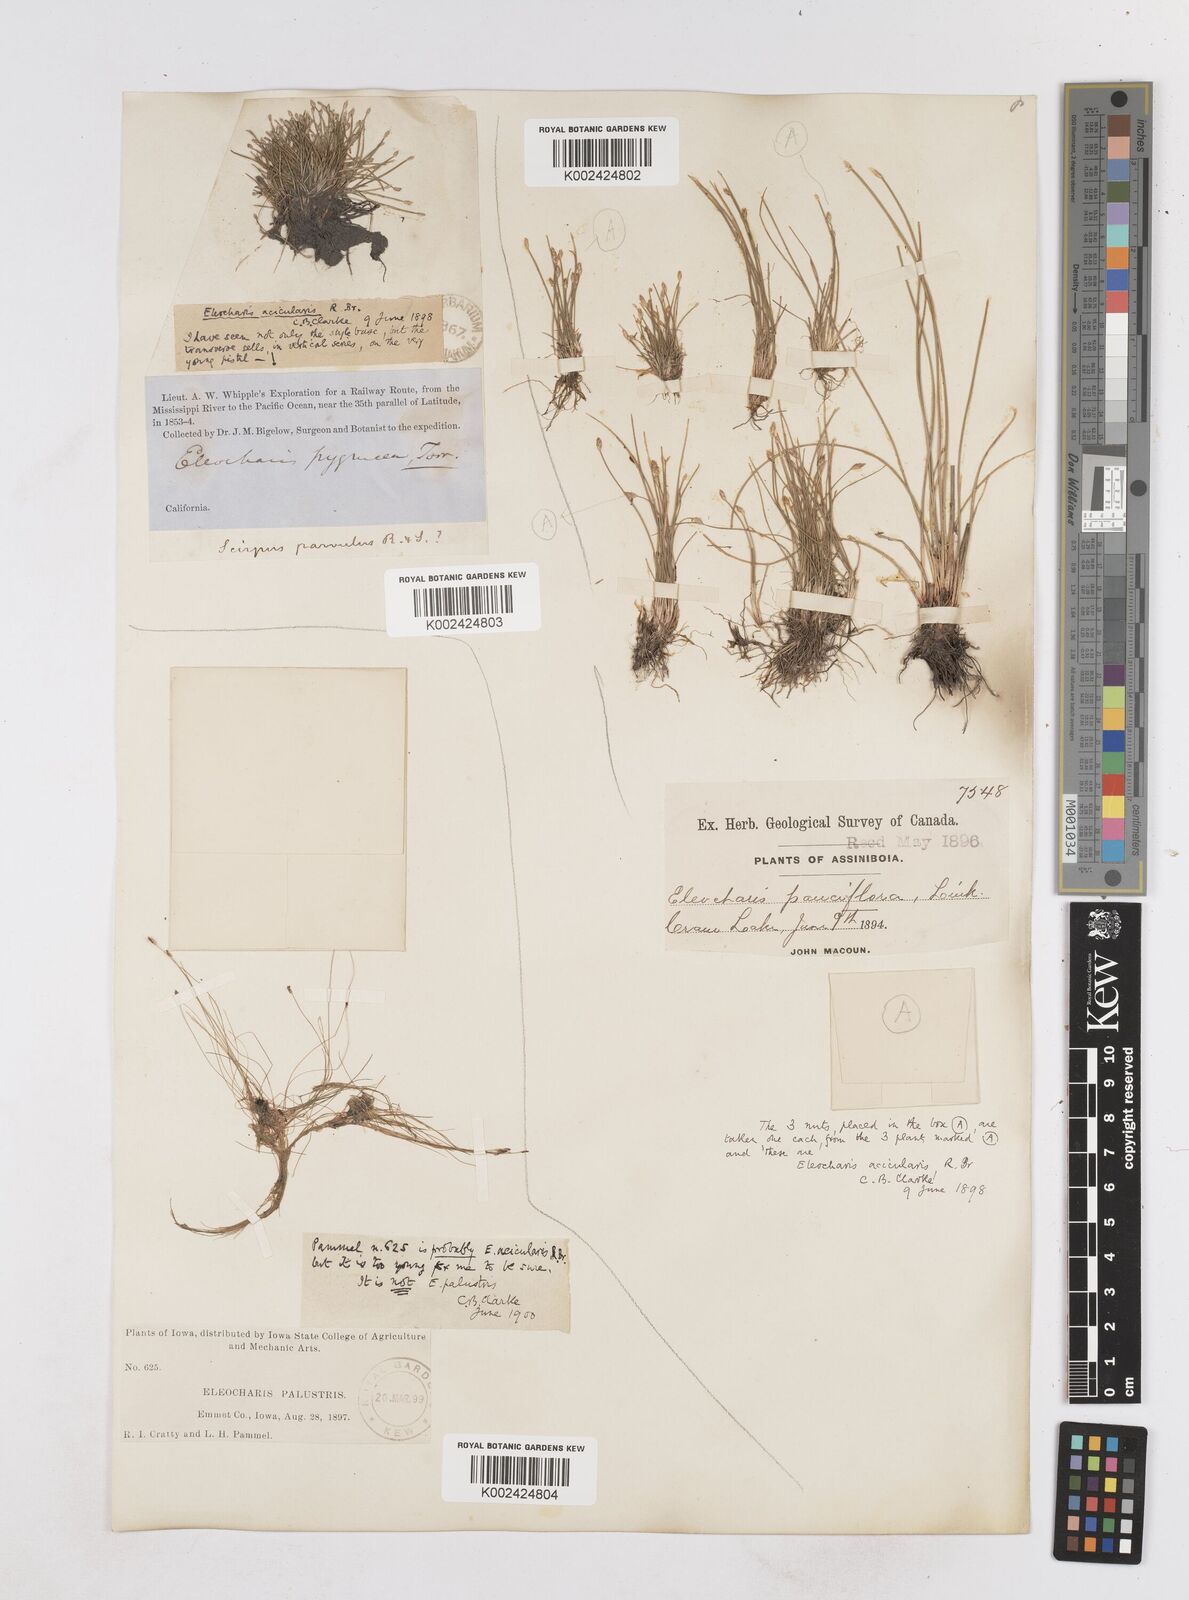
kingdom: Plantae
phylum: Tracheophyta
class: Liliopsida
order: Poales
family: Cyperaceae
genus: Eleocharis
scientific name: Eleocharis acicularis
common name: Needle spike-rush
